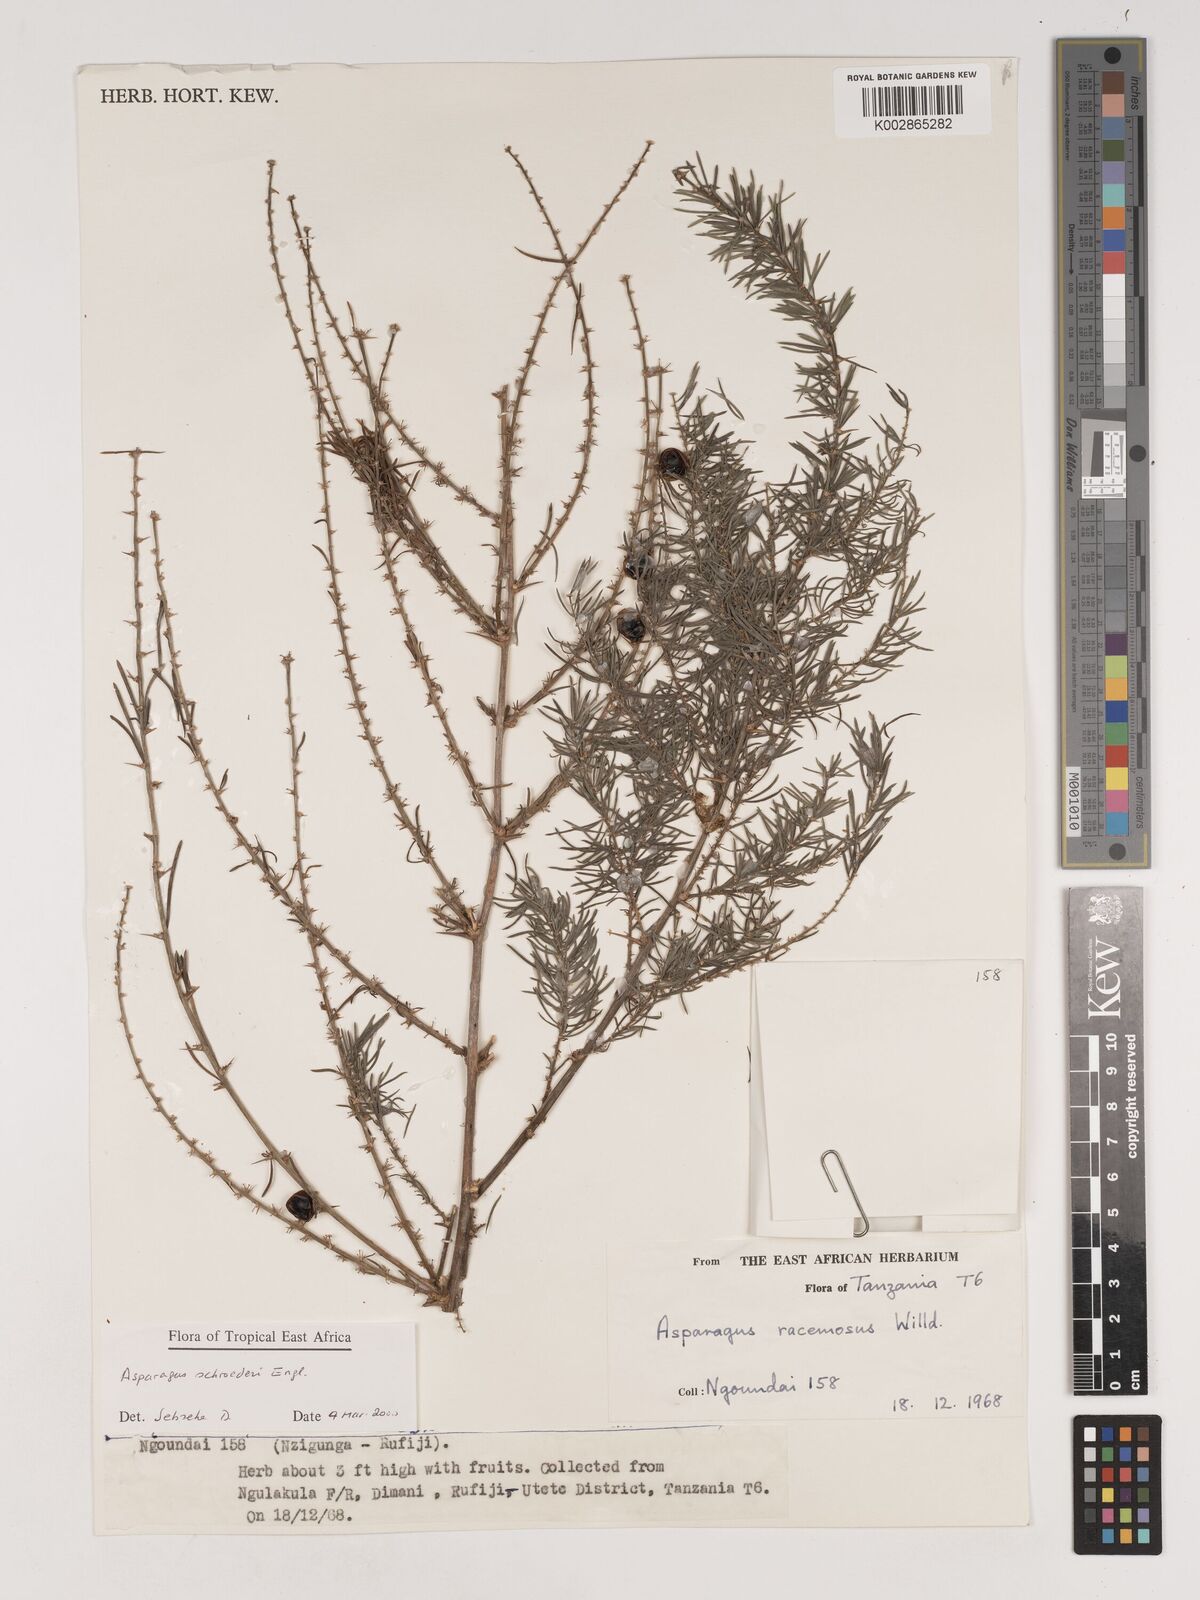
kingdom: Plantae
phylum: Tracheophyta
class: Liliopsida
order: Asparagales
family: Asparagaceae
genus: Asparagus
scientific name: Asparagus schroederi
